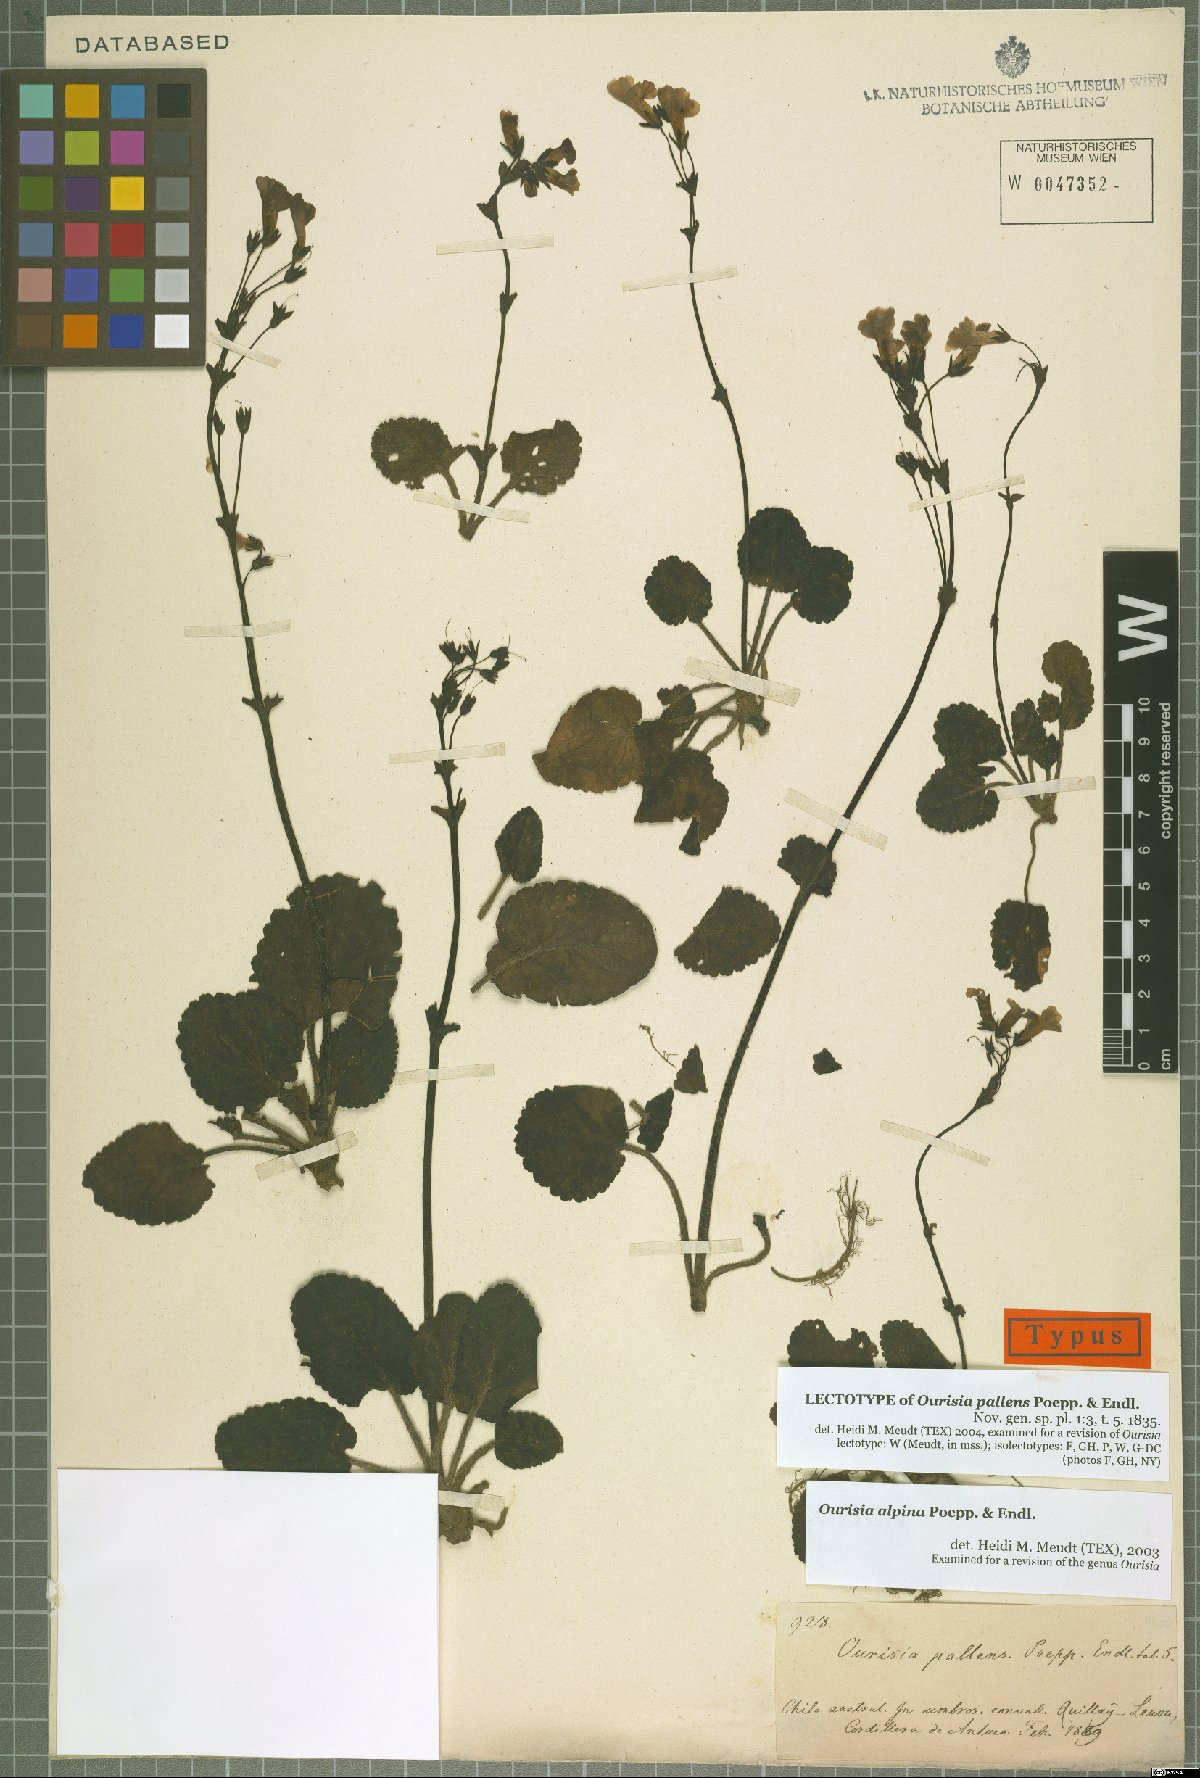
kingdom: Plantae
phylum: Tracheophyta
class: Magnoliopsida
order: Lamiales
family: Plantaginaceae
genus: Ourisia
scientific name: Ourisia alpina
